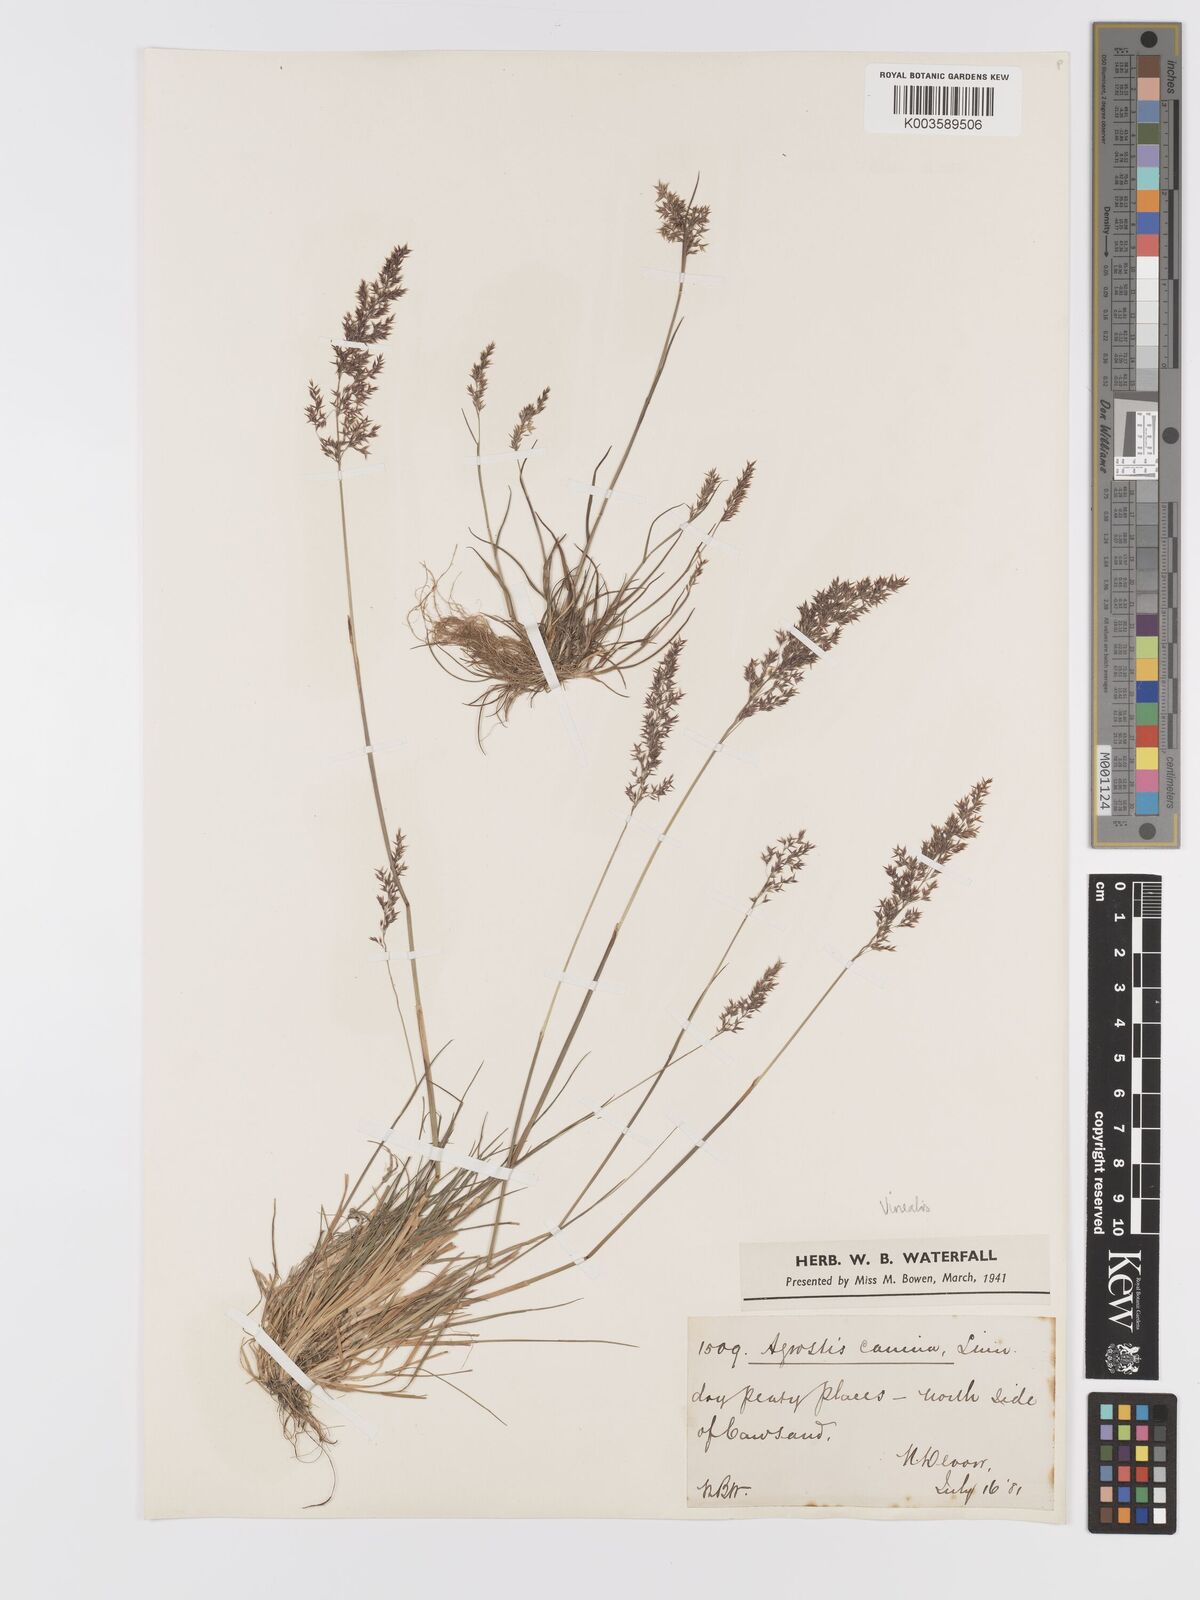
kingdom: Plantae
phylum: Tracheophyta
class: Liliopsida
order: Poales
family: Poaceae
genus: Agrostis
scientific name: Agrostis
